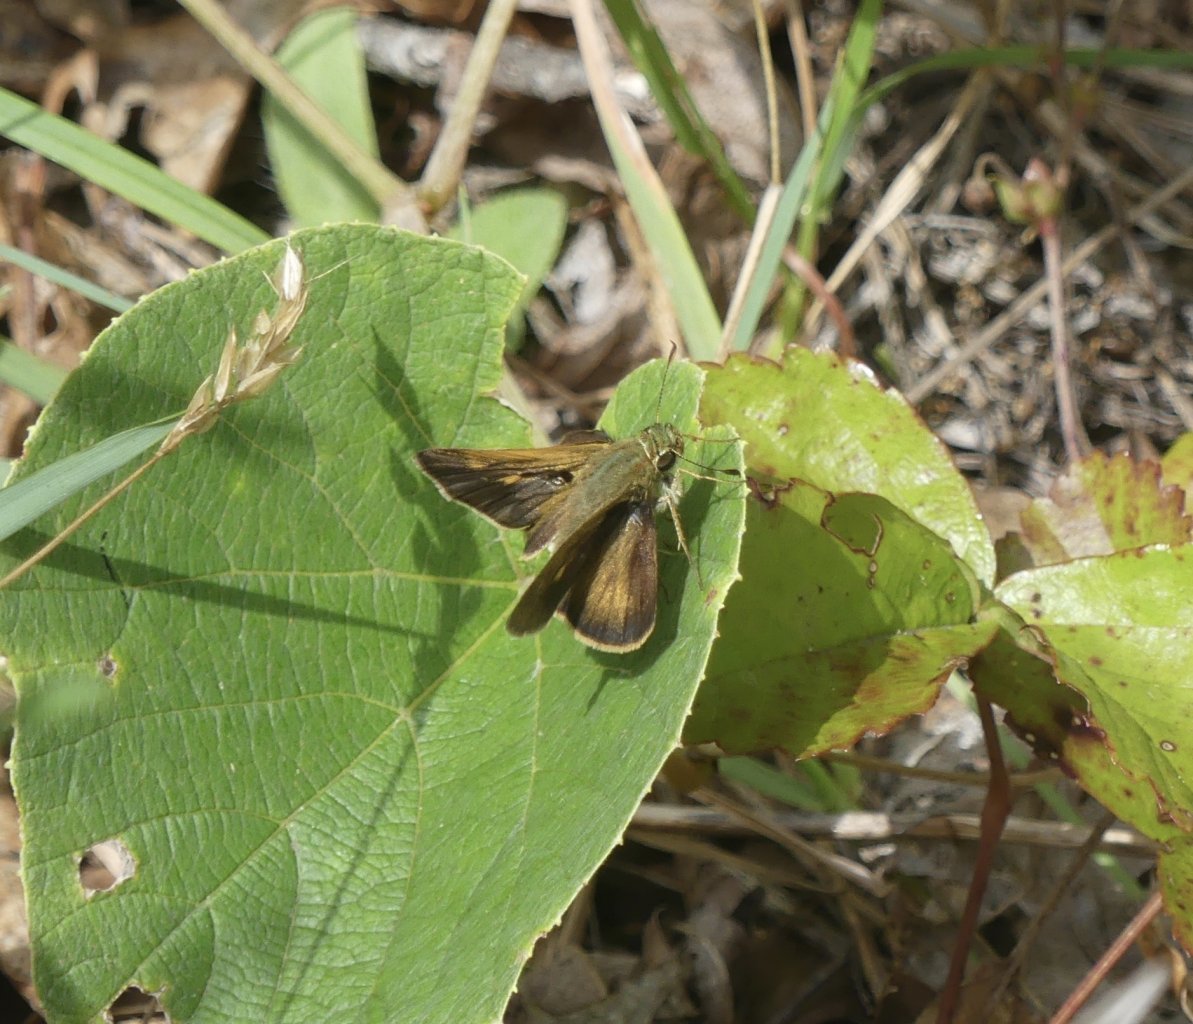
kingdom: Animalia
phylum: Arthropoda
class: Insecta
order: Lepidoptera
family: Hesperiidae
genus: Polites
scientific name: Polites egeremet
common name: Northern Broken-Dash
